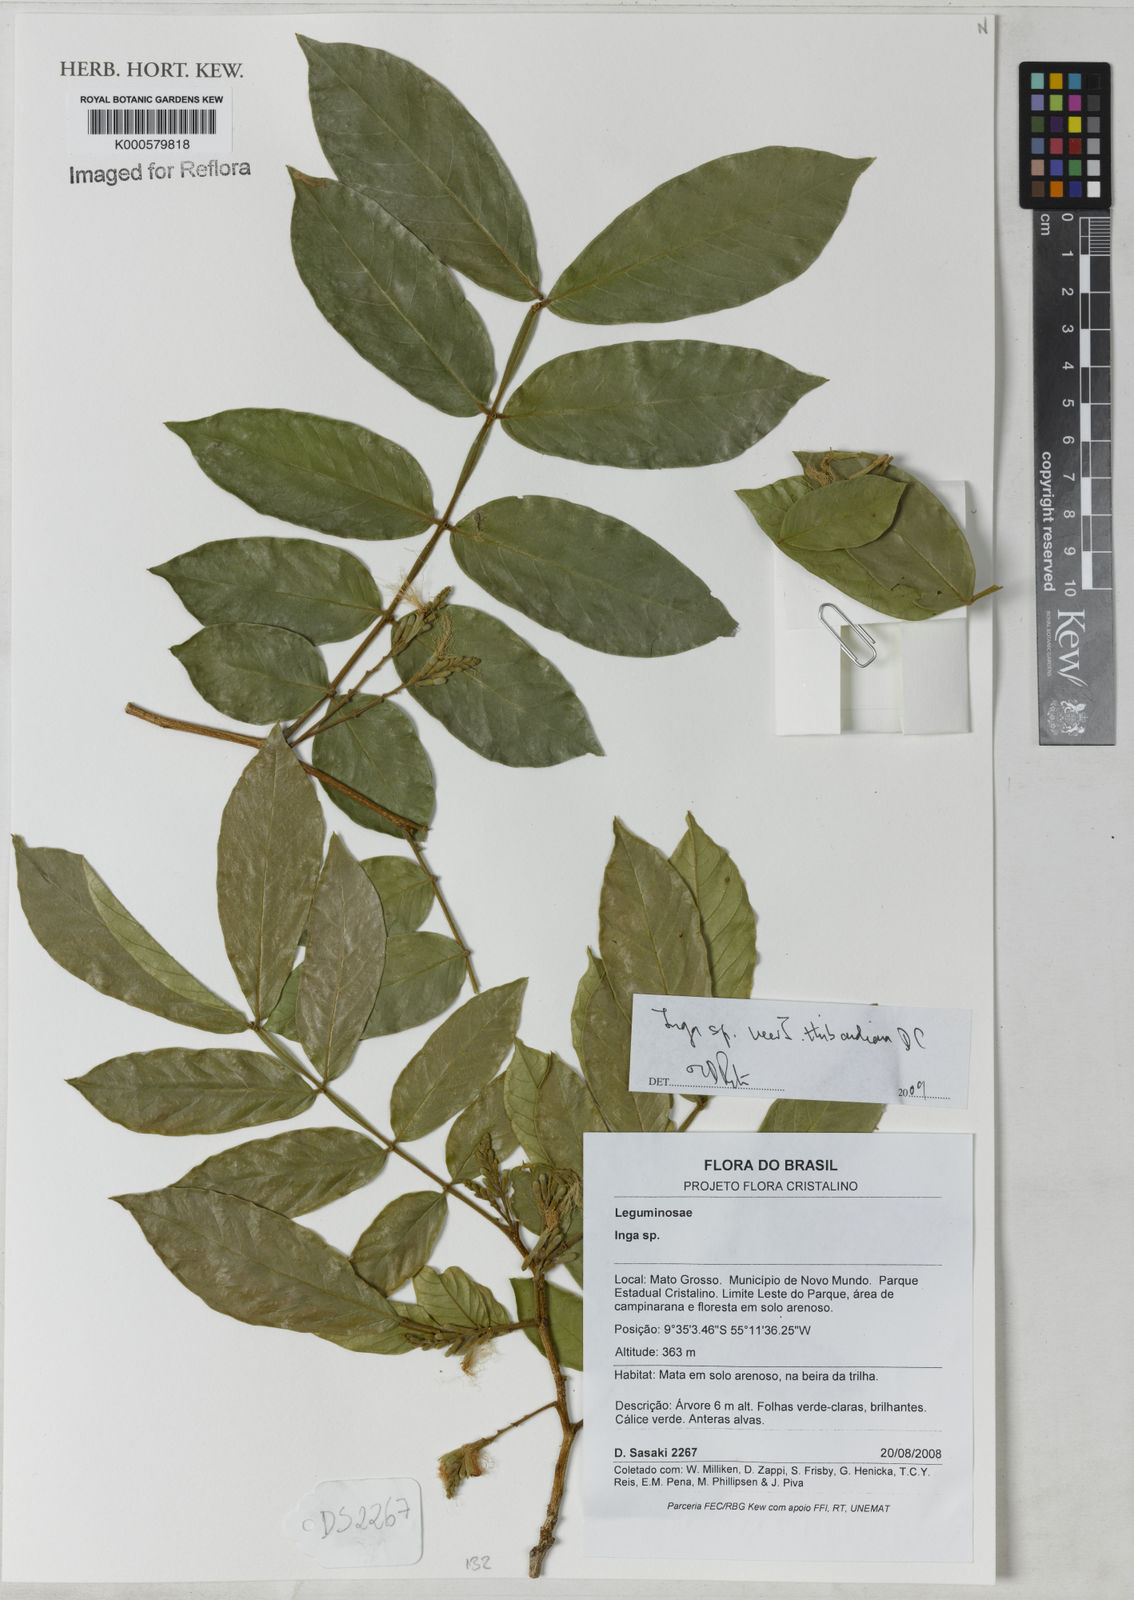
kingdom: Plantae
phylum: Tracheophyta
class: Magnoliopsida
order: Fabales
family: Fabaceae
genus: Inga
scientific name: Inga thibaudiana
